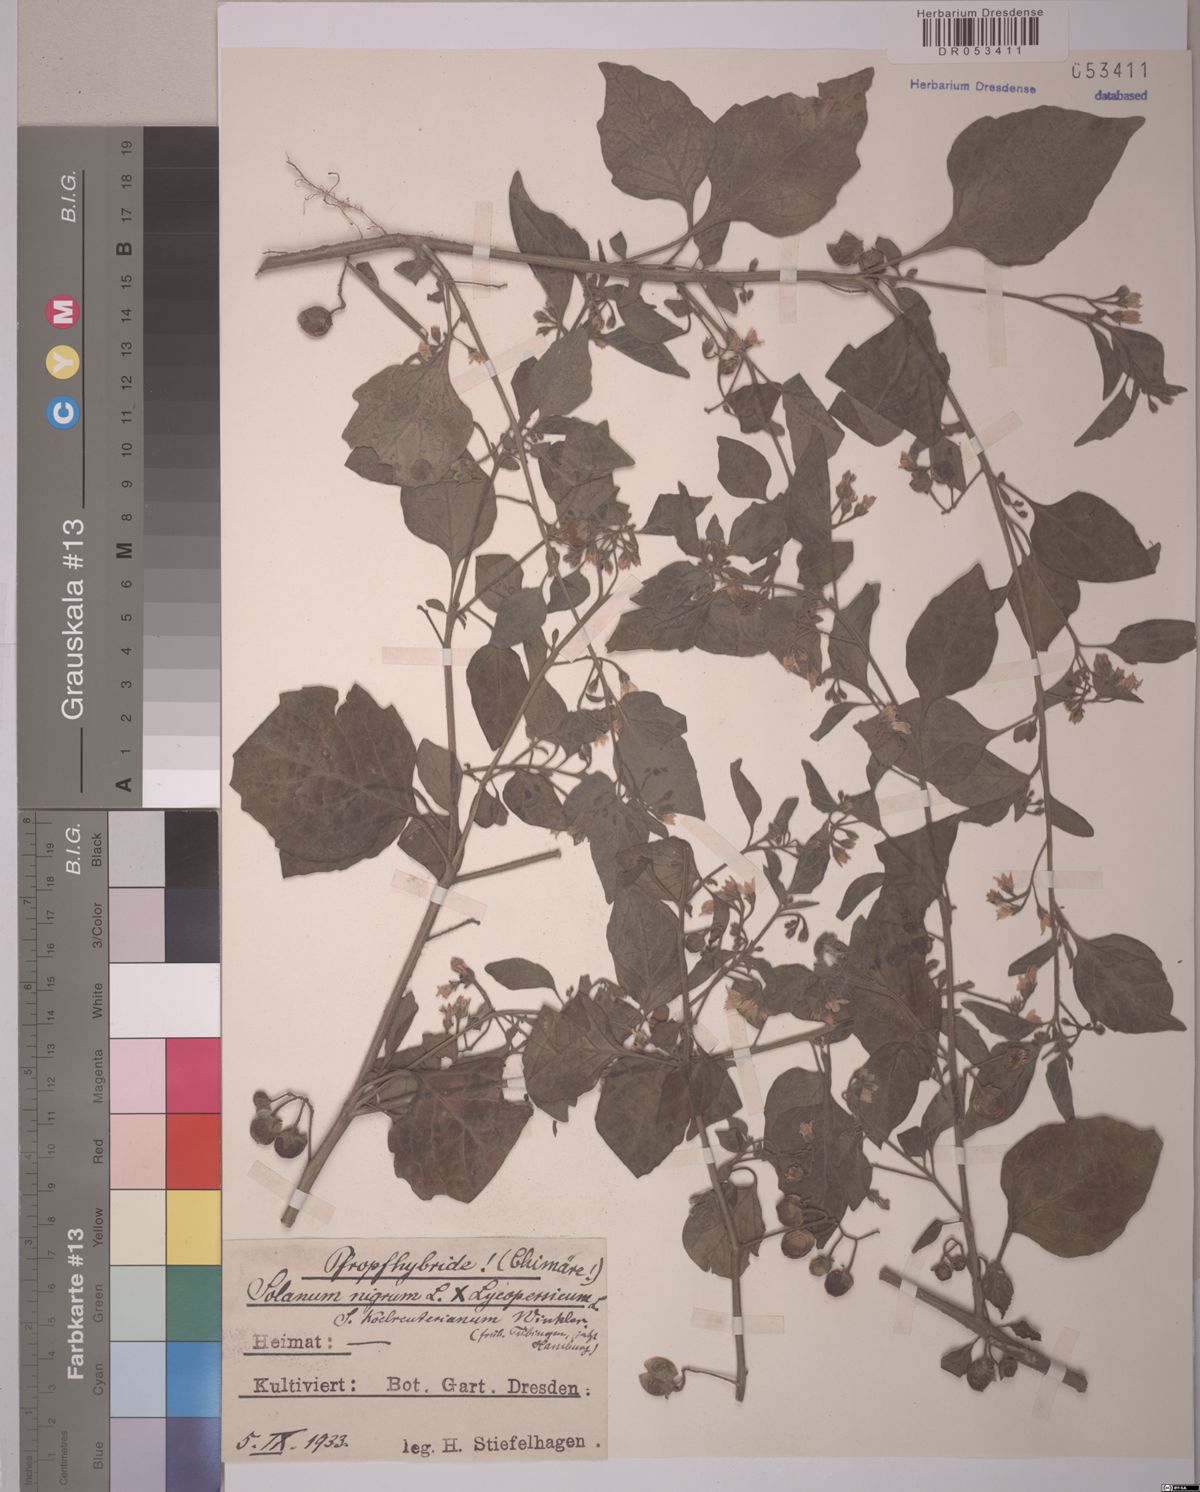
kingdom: Plantae
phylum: Tracheophyta
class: Magnoliopsida
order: Solanales
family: Solanaceae
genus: Solanum
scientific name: Solanum
